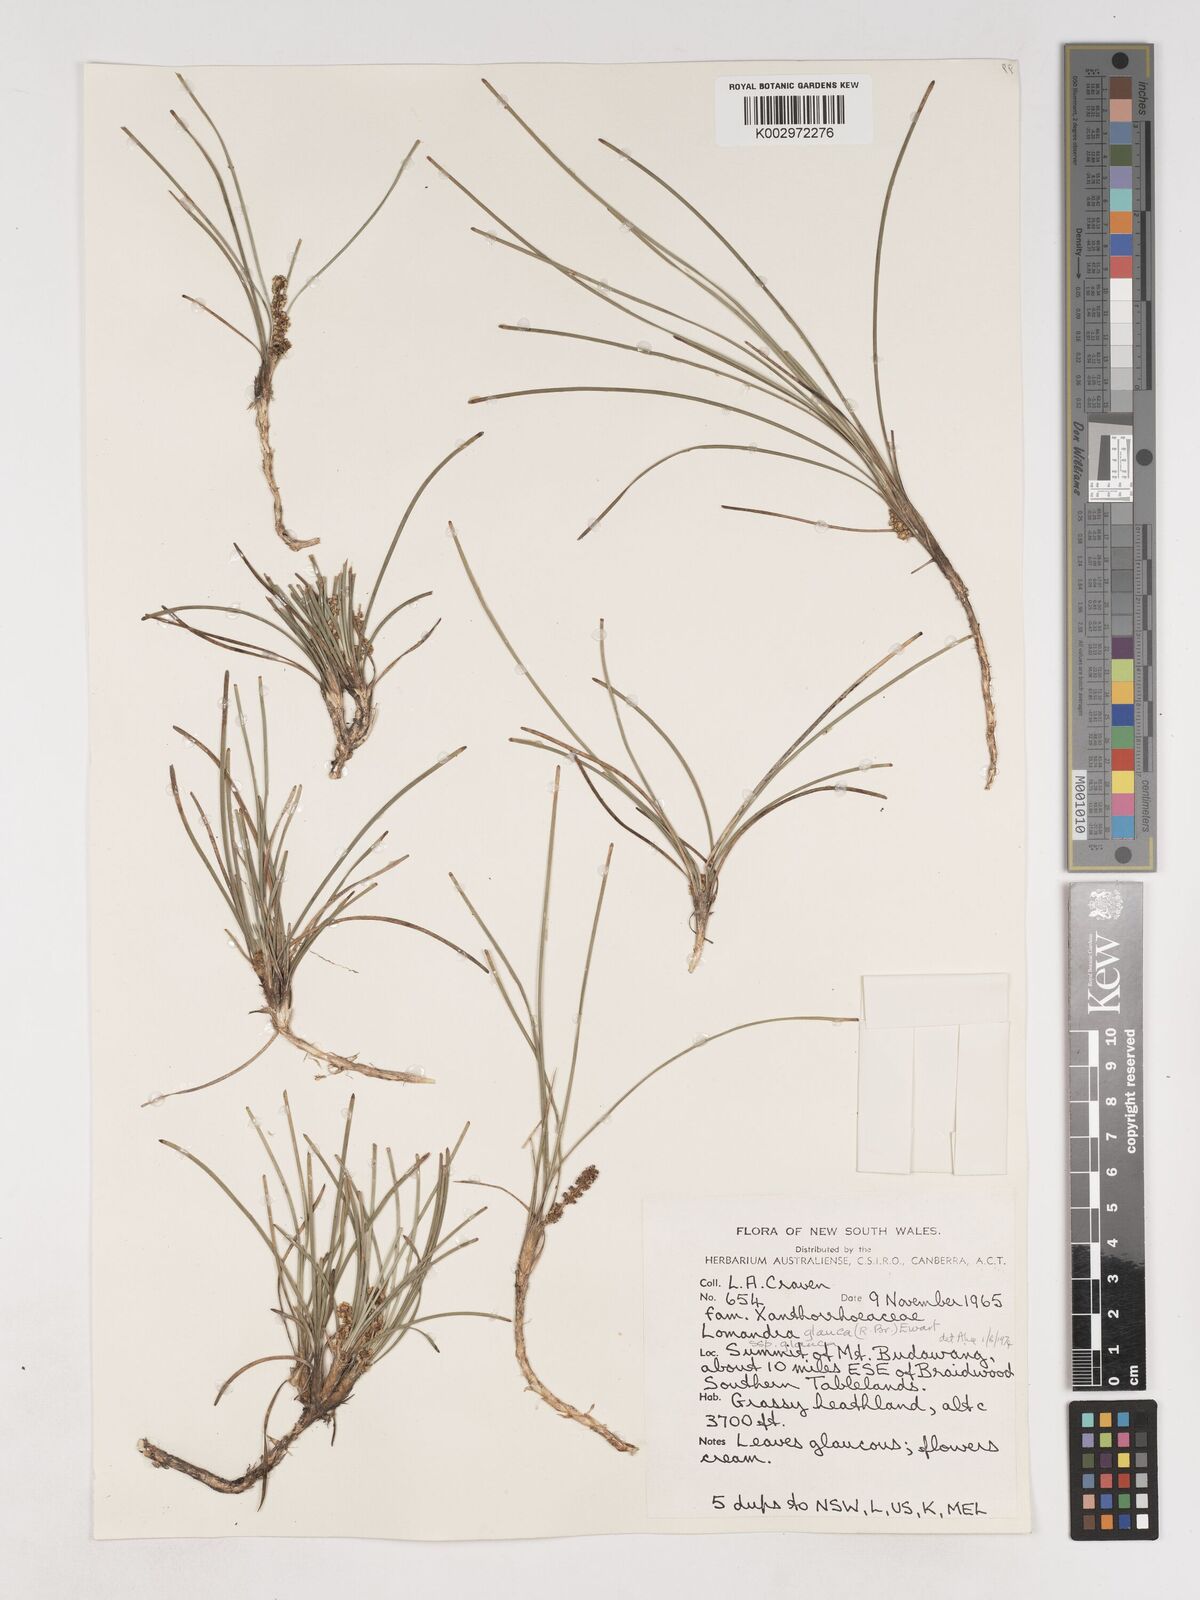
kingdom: Plantae
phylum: Tracheophyta
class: Liliopsida
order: Asparagales
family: Asparagaceae
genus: Lomandra
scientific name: Lomandra
